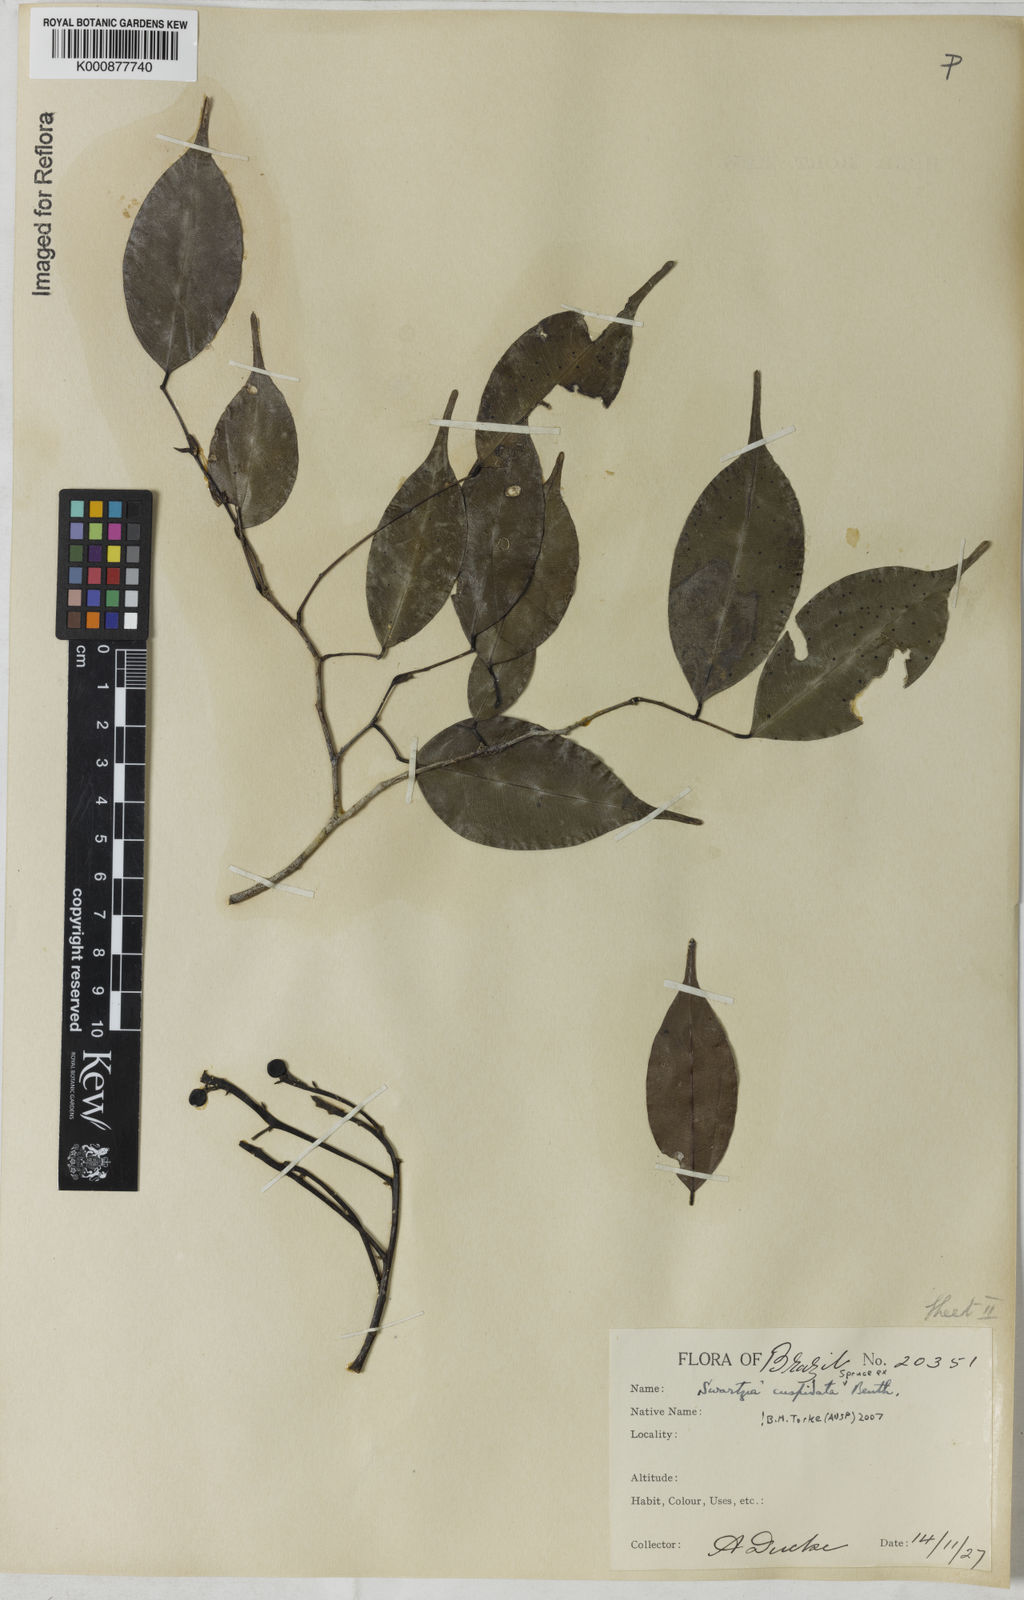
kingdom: Plantae
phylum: Tracheophyta
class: Magnoliopsida
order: Fabales
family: Fabaceae
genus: Swartzia
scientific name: Swartzia cuspidata
